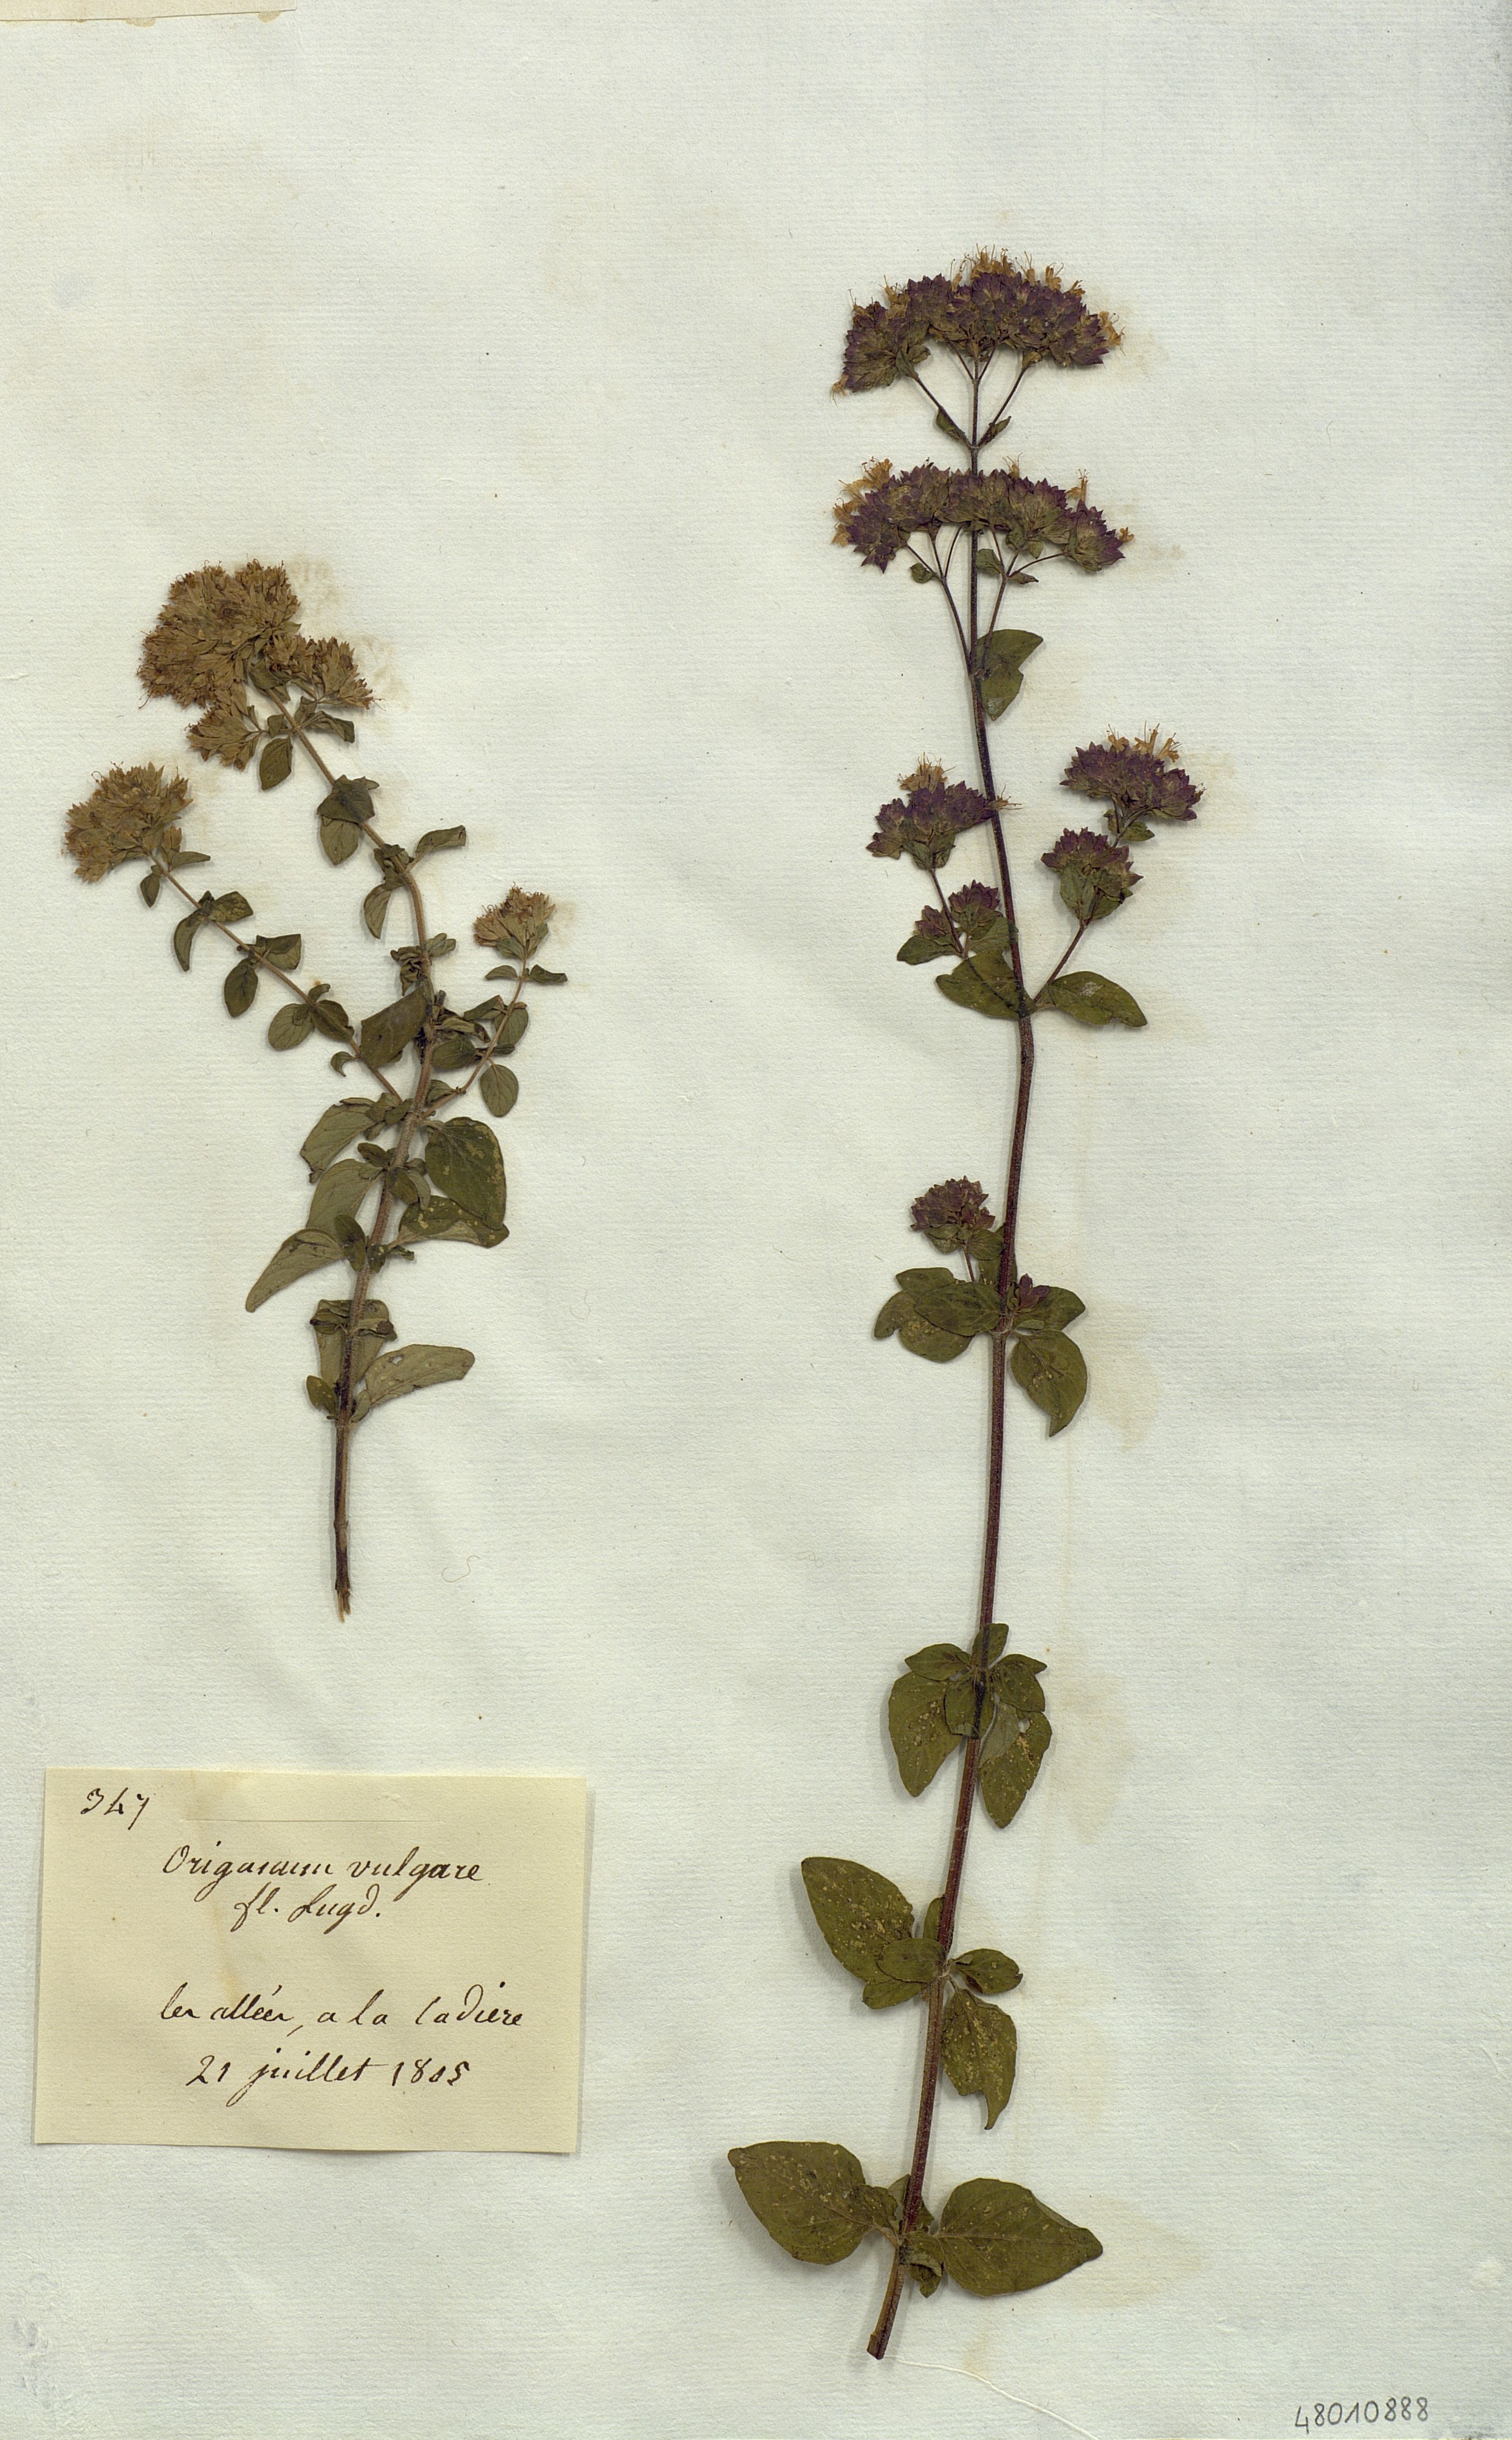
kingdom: Plantae
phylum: Tracheophyta
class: Magnoliopsida
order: Lamiales
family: Lamiaceae
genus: Origanum
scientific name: Origanum vulgare
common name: Wild marjoram
